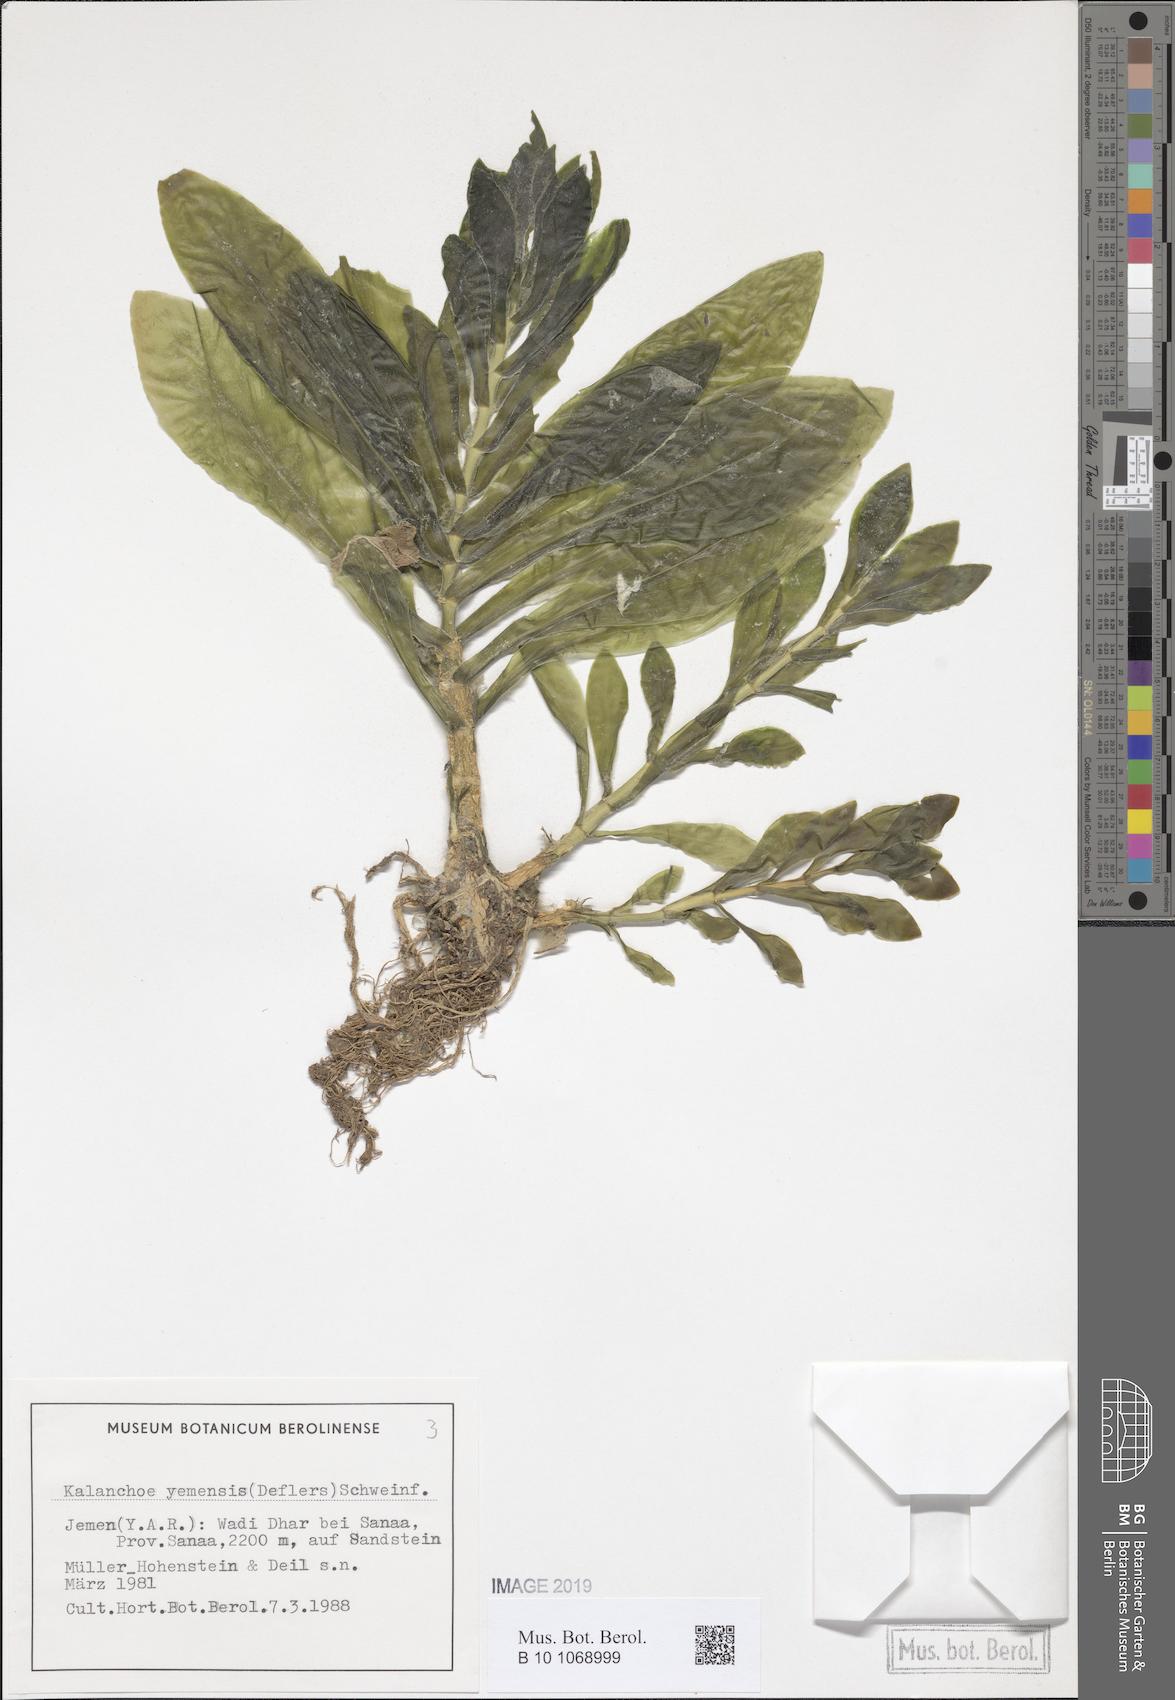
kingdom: Plantae
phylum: Tracheophyta
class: Magnoliopsida
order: Saxifragales
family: Crassulaceae
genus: Kalanchoe
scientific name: Kalanchoe yemensis
